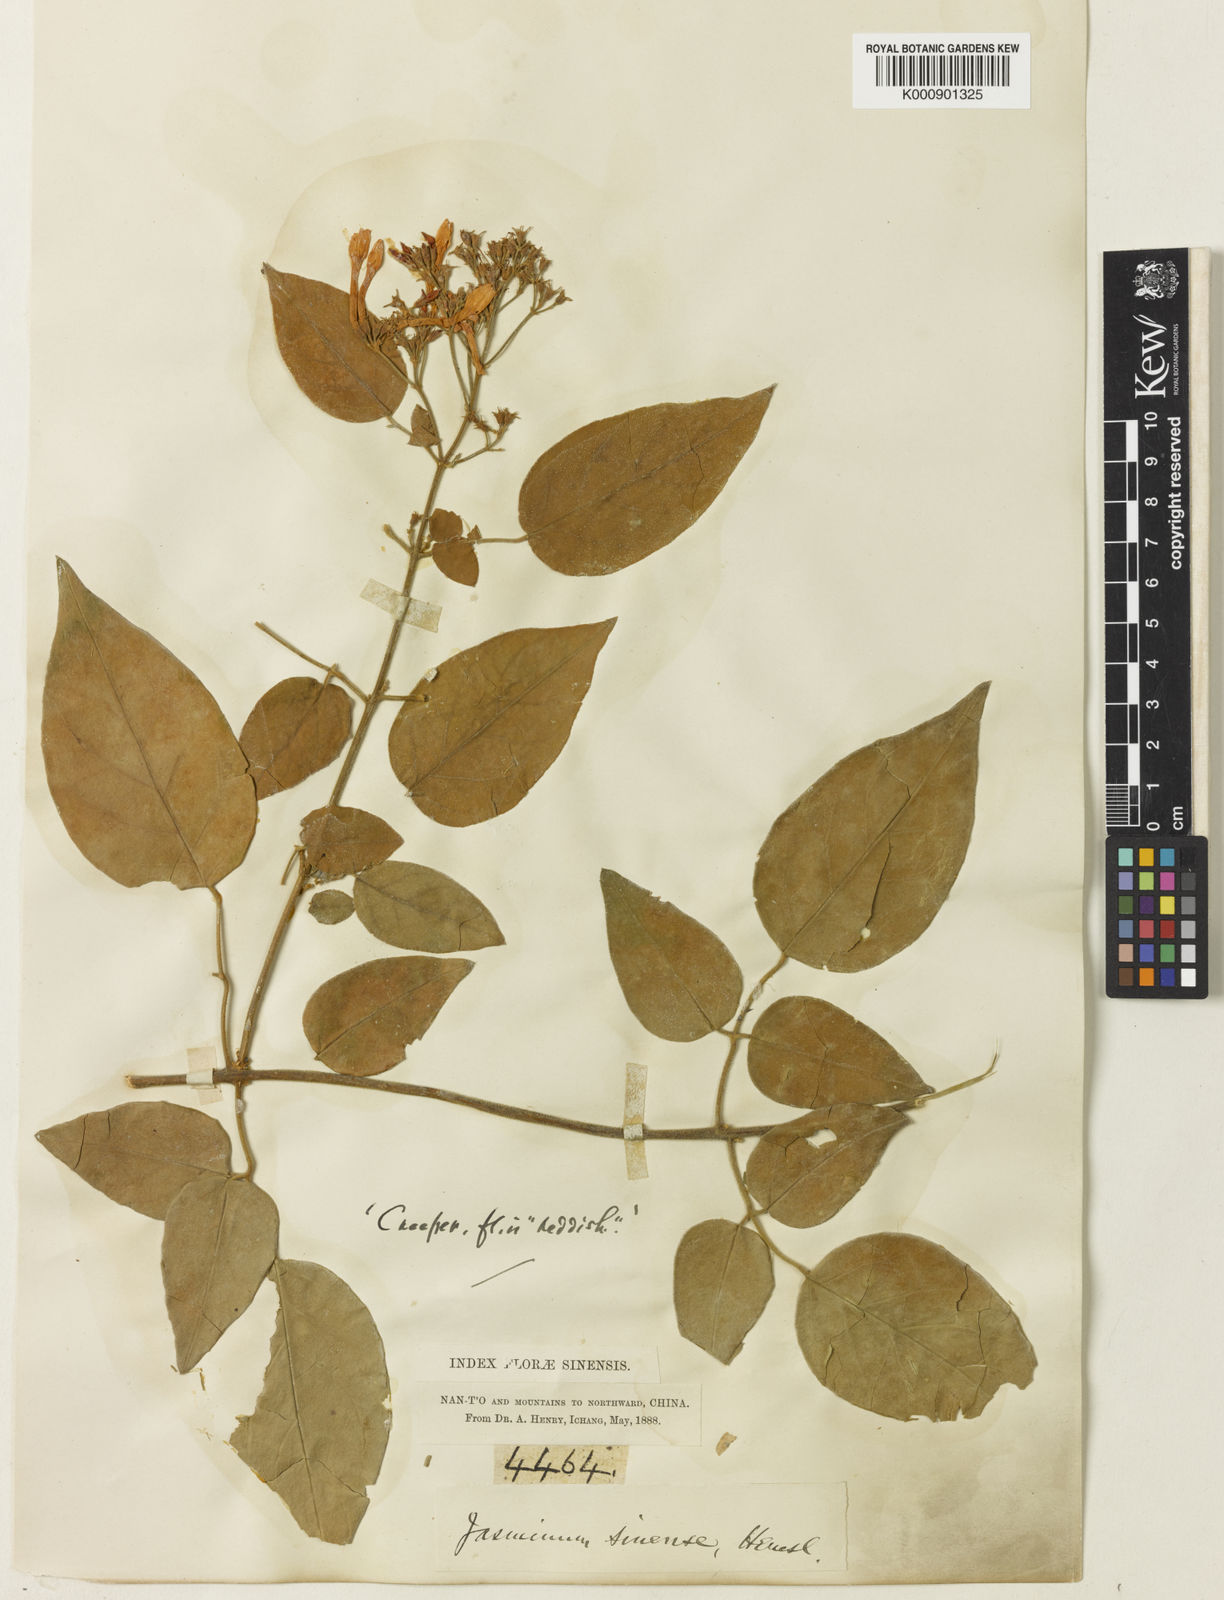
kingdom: Plantae
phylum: Tracheophyta
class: Magnoliopsida
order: Lamiales
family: Oleaceae
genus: Jasminum
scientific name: Jasminum sinense
